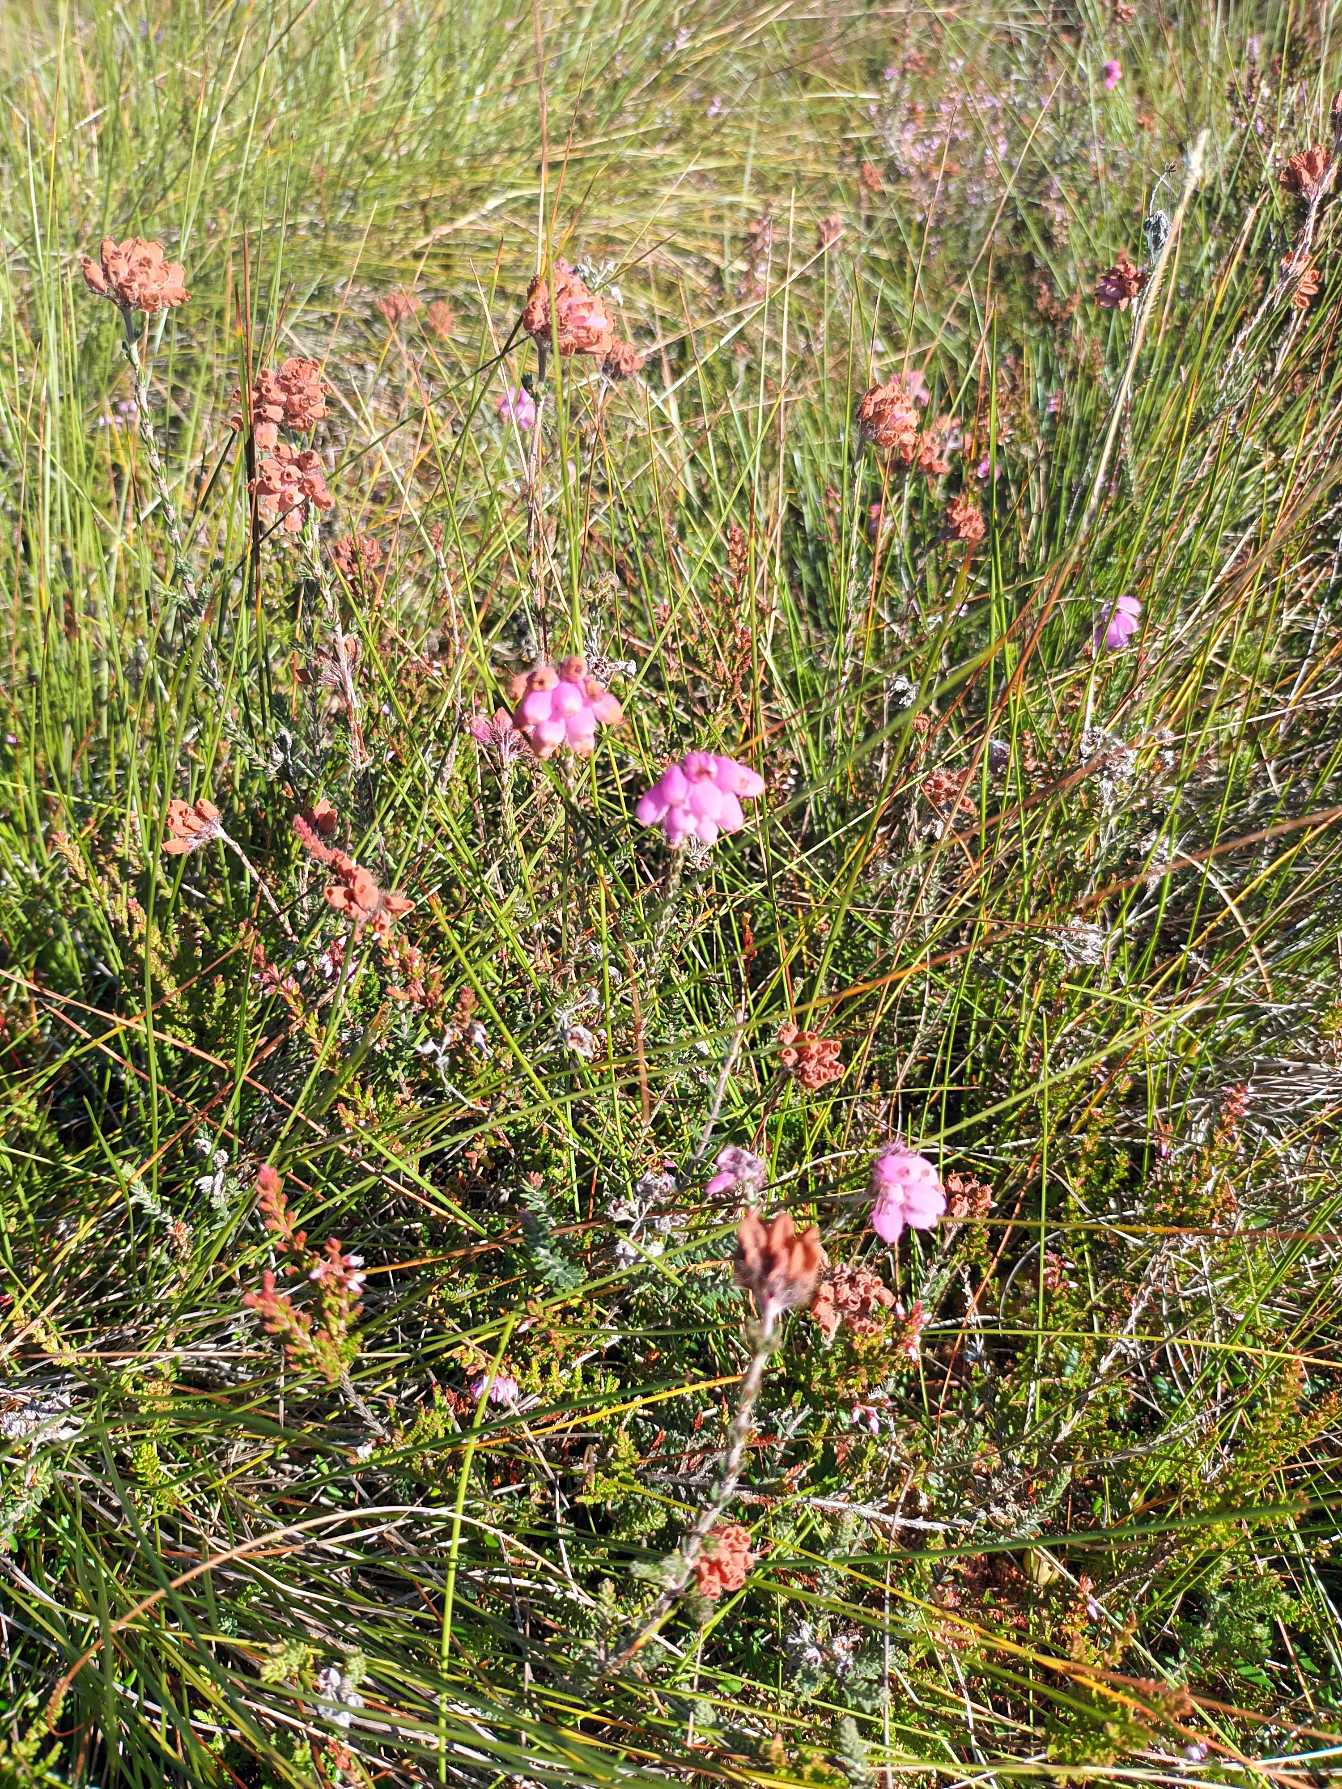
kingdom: Plantae
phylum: Tracheophyta
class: Magnoliopsida
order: Ericales
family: Ericaceae
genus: Erica
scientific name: Erica tetralix
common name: Klokkelyng
